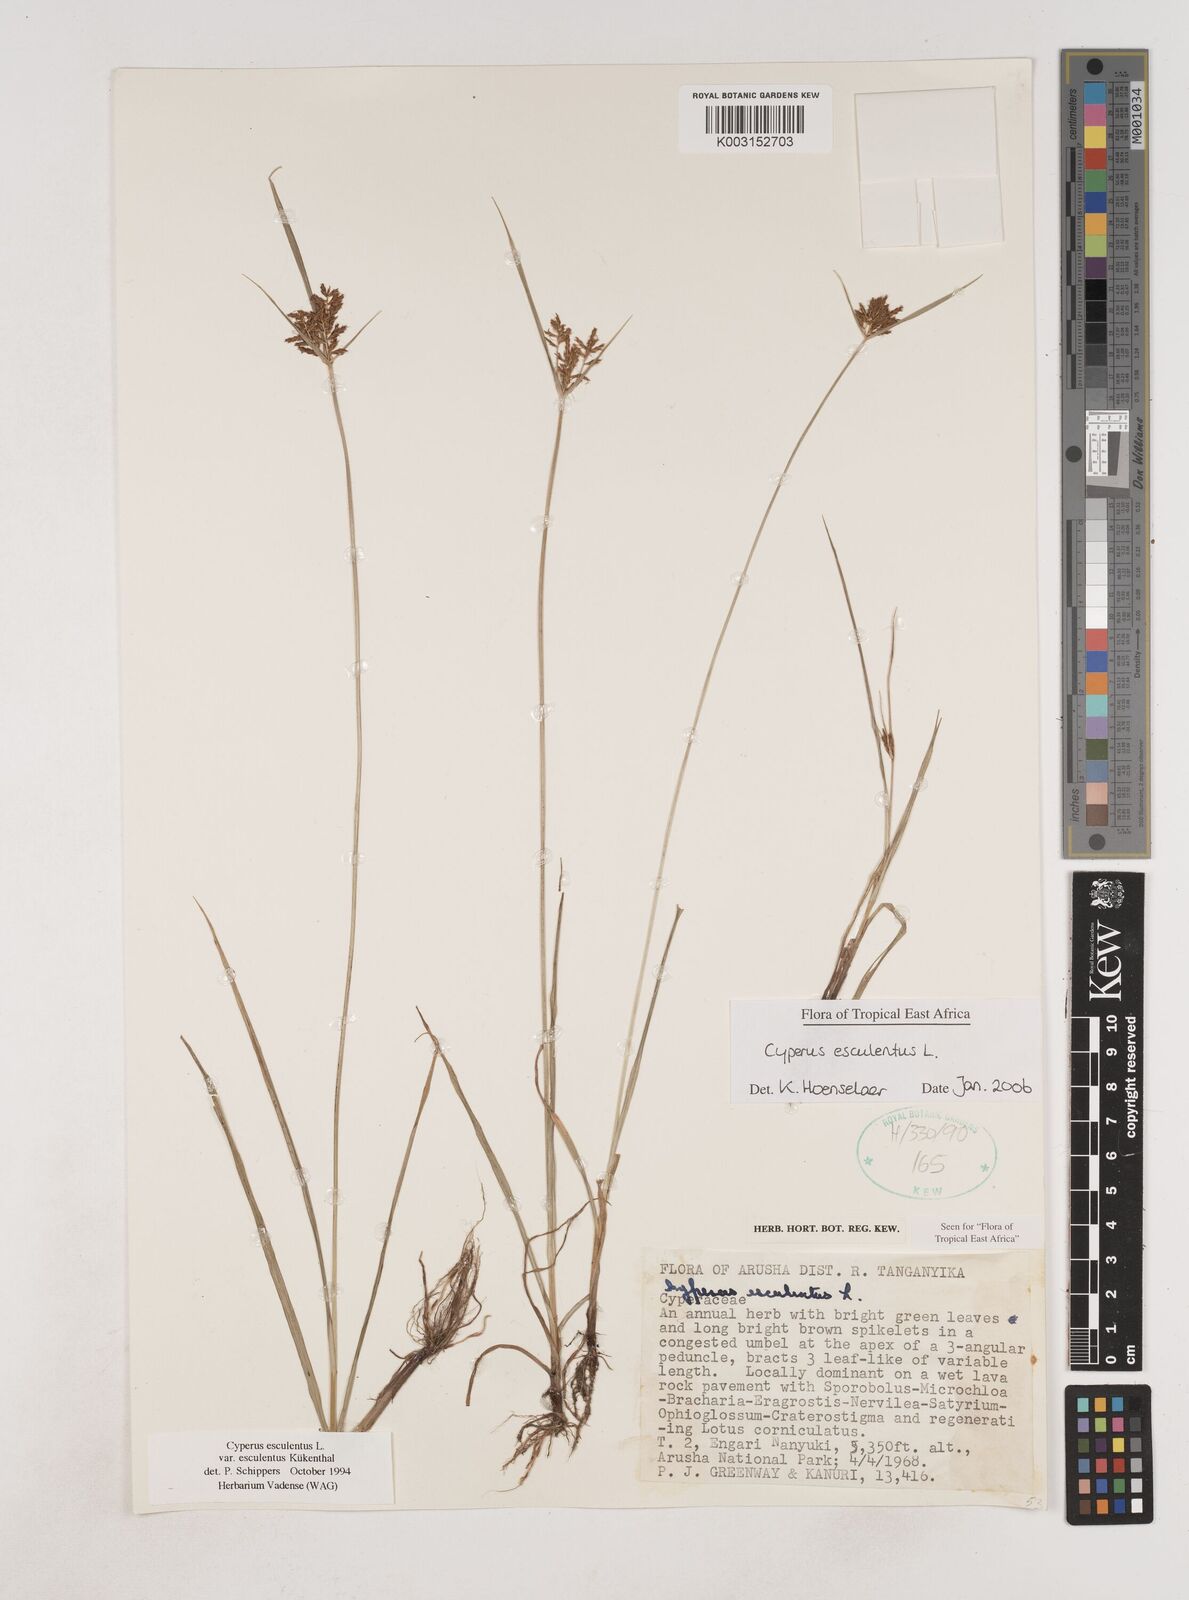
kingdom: Plantae
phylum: Tracheophyta
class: Liliopsida
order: Poales
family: Cyperaceae
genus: Cyperus
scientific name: Cyperus esculentus
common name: Yellow nutsedge
